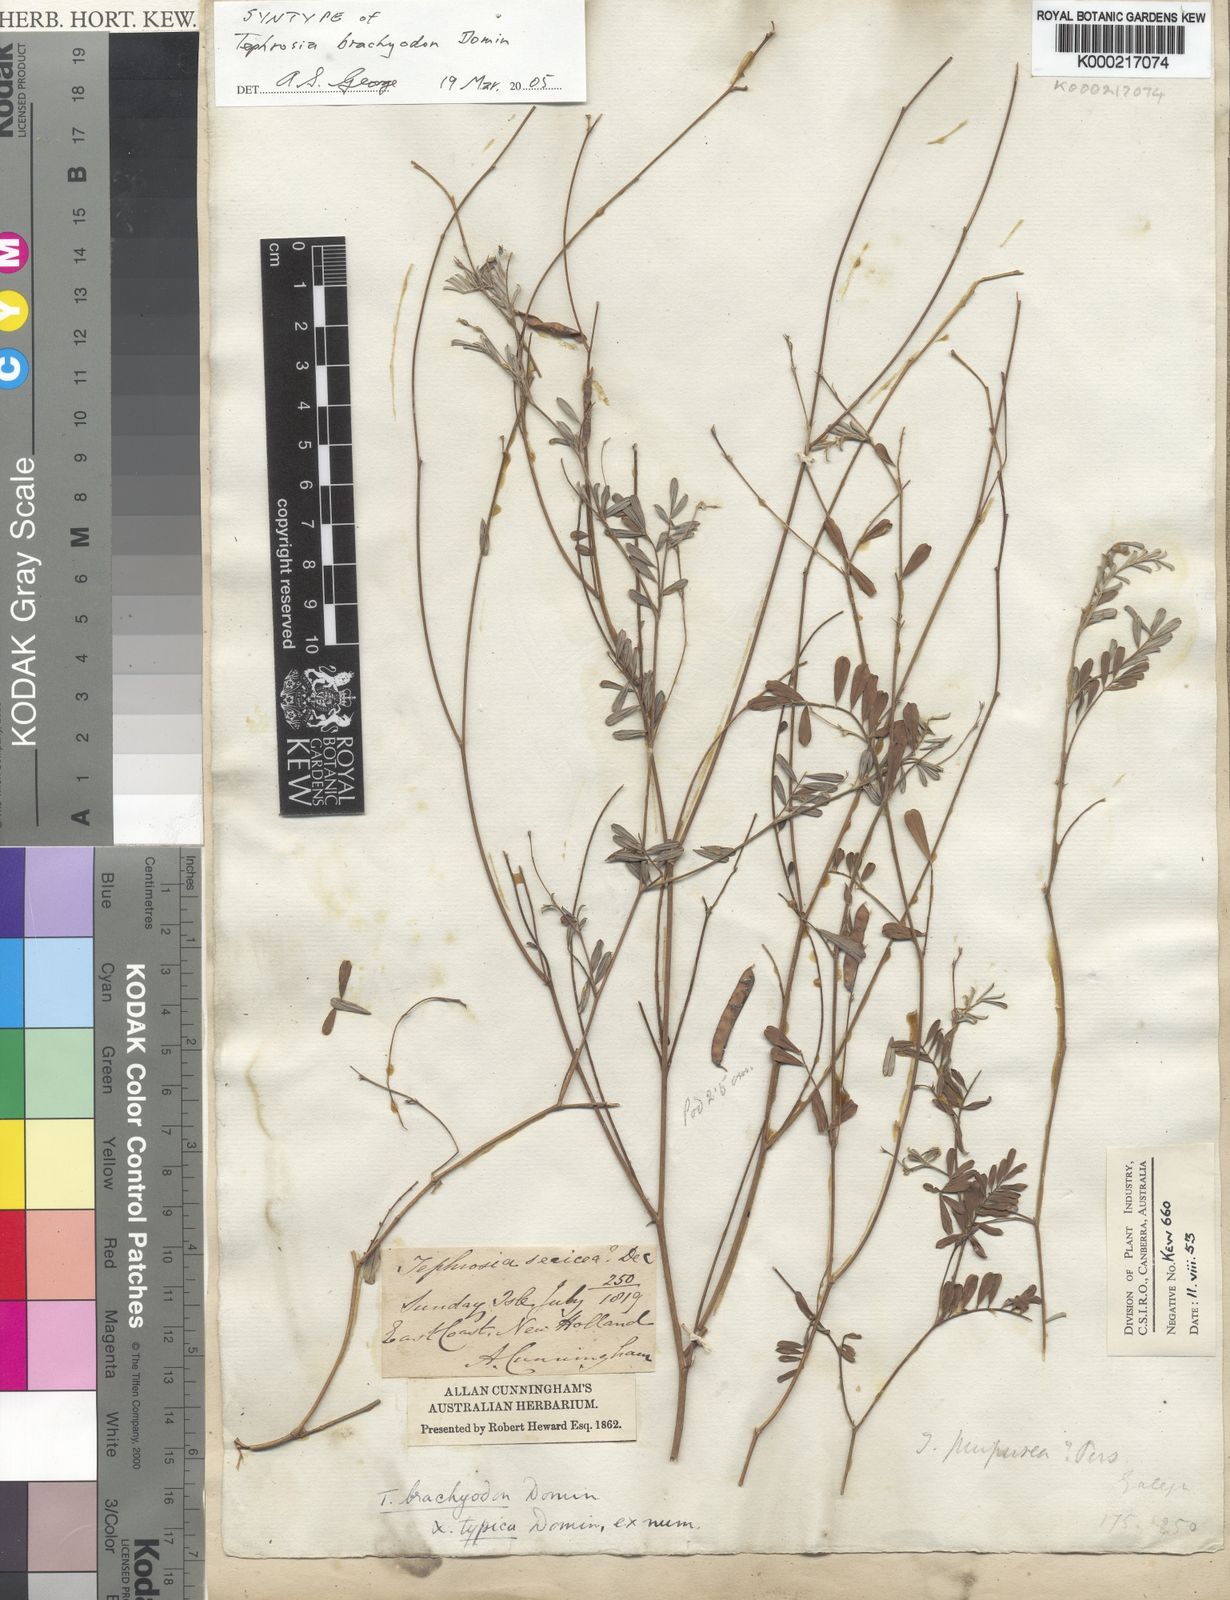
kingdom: Plantae
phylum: Tracheophyta
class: Magnoliopsida
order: Fabales
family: Fabaceae
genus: Tephrosia
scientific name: Tephrosia brachyodon
